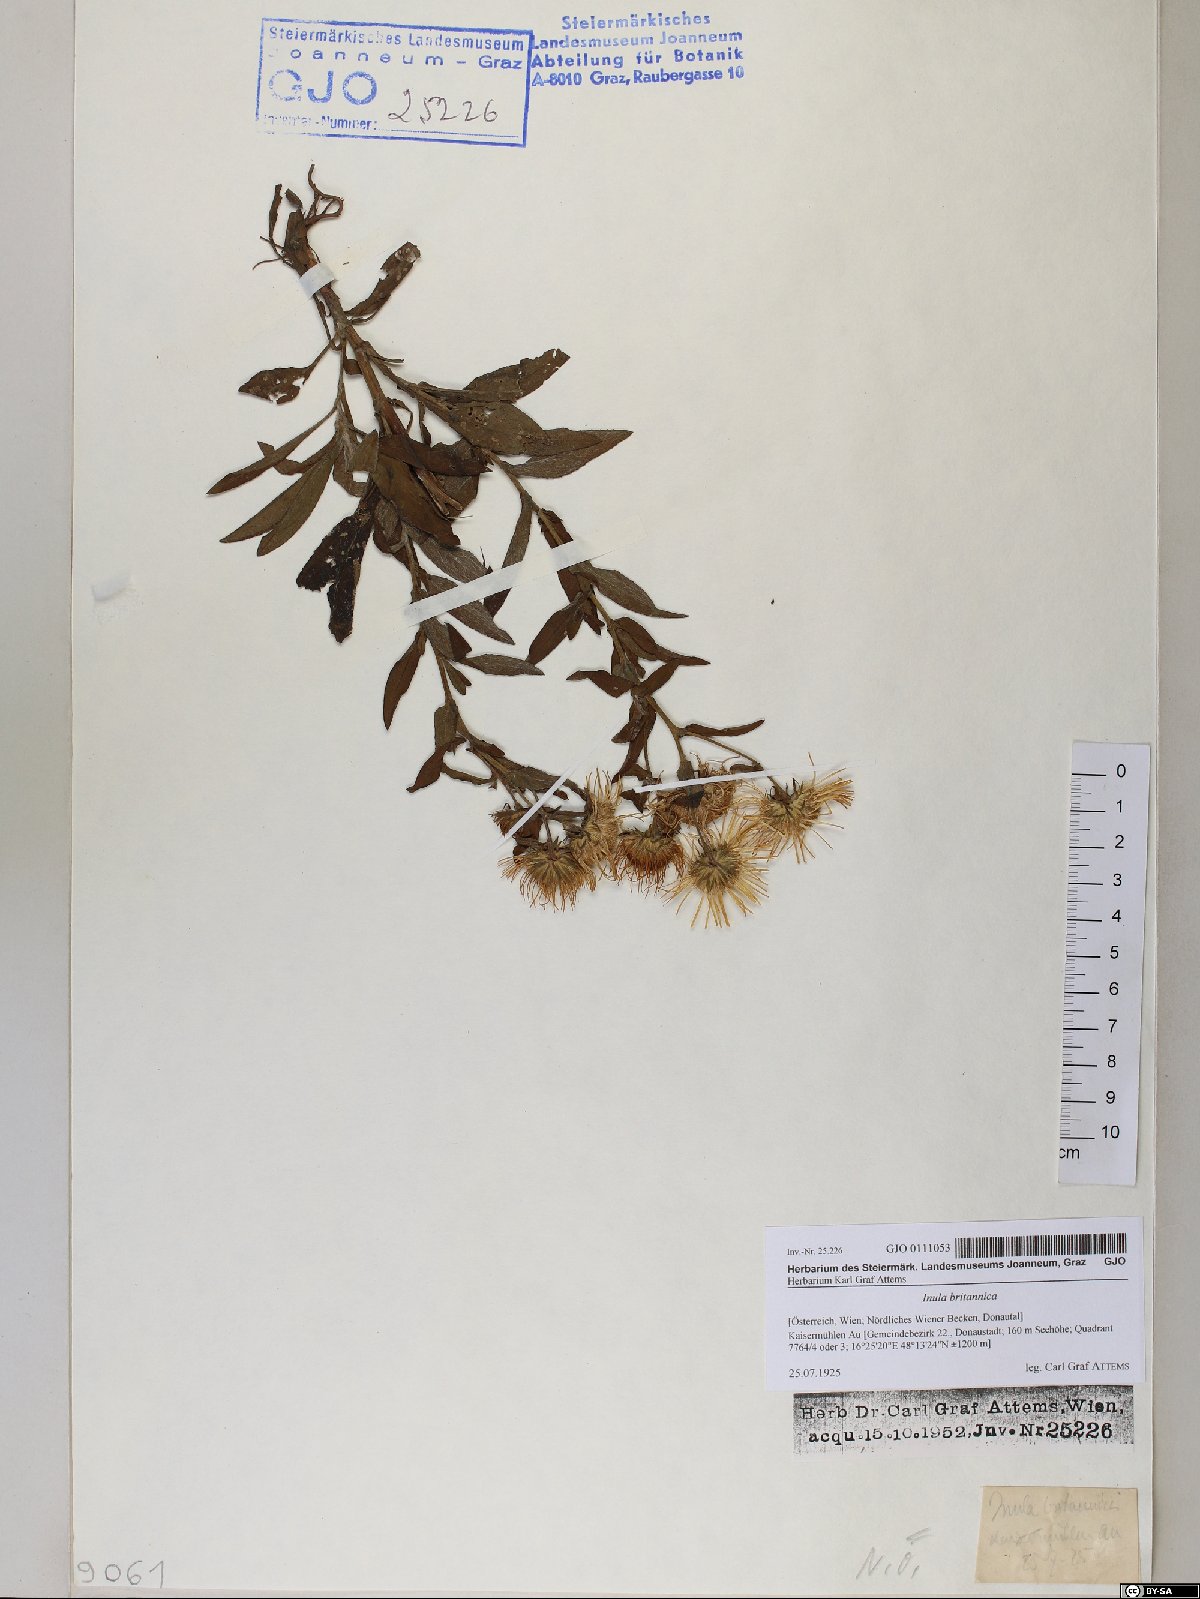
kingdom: Plantae
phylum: Tracheophyta
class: Magnoliopsida
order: Asterales
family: Asteraceae
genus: Pentanema
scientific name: Pentanema britannicum
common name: British elecampane
